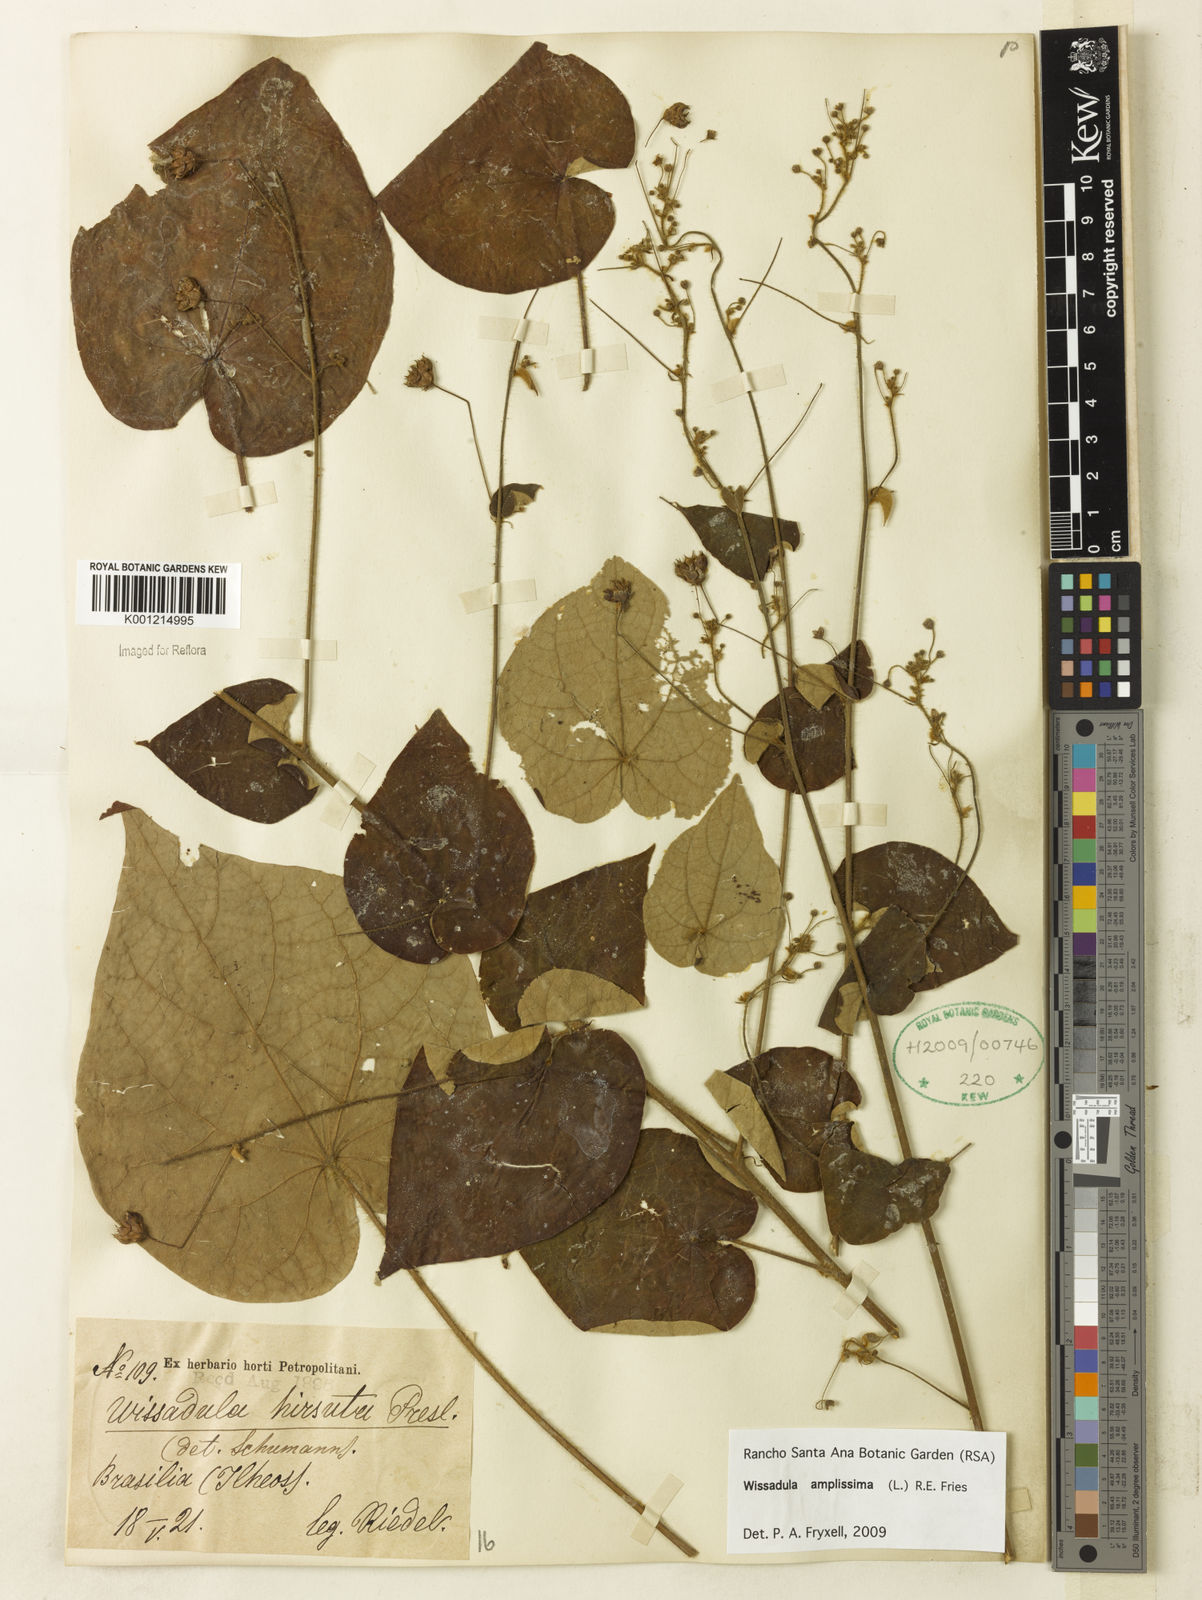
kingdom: Plantae
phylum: Tracheophyta
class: Magnoliopsida
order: Malvales
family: Malvaceae
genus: Wissadula
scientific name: Wissadula amplissima
